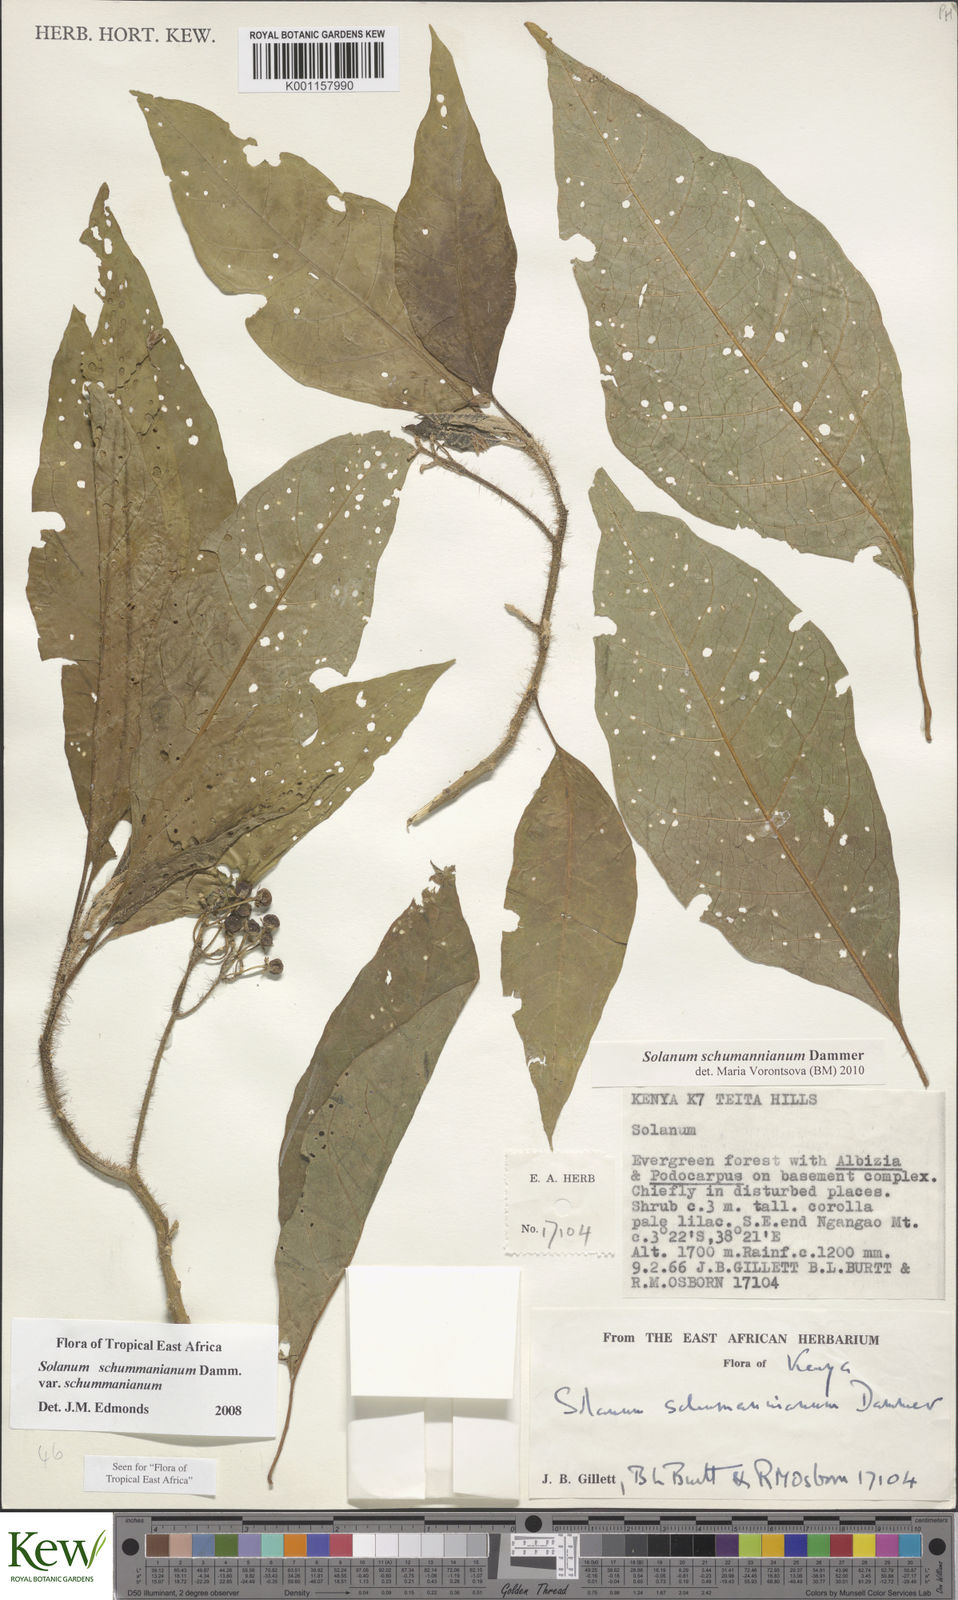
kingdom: Plantae
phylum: Tracheophyta
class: Magnoliopsida
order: Solanales
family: Solanaceae
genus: Solanum
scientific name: Solanum schumannianum
